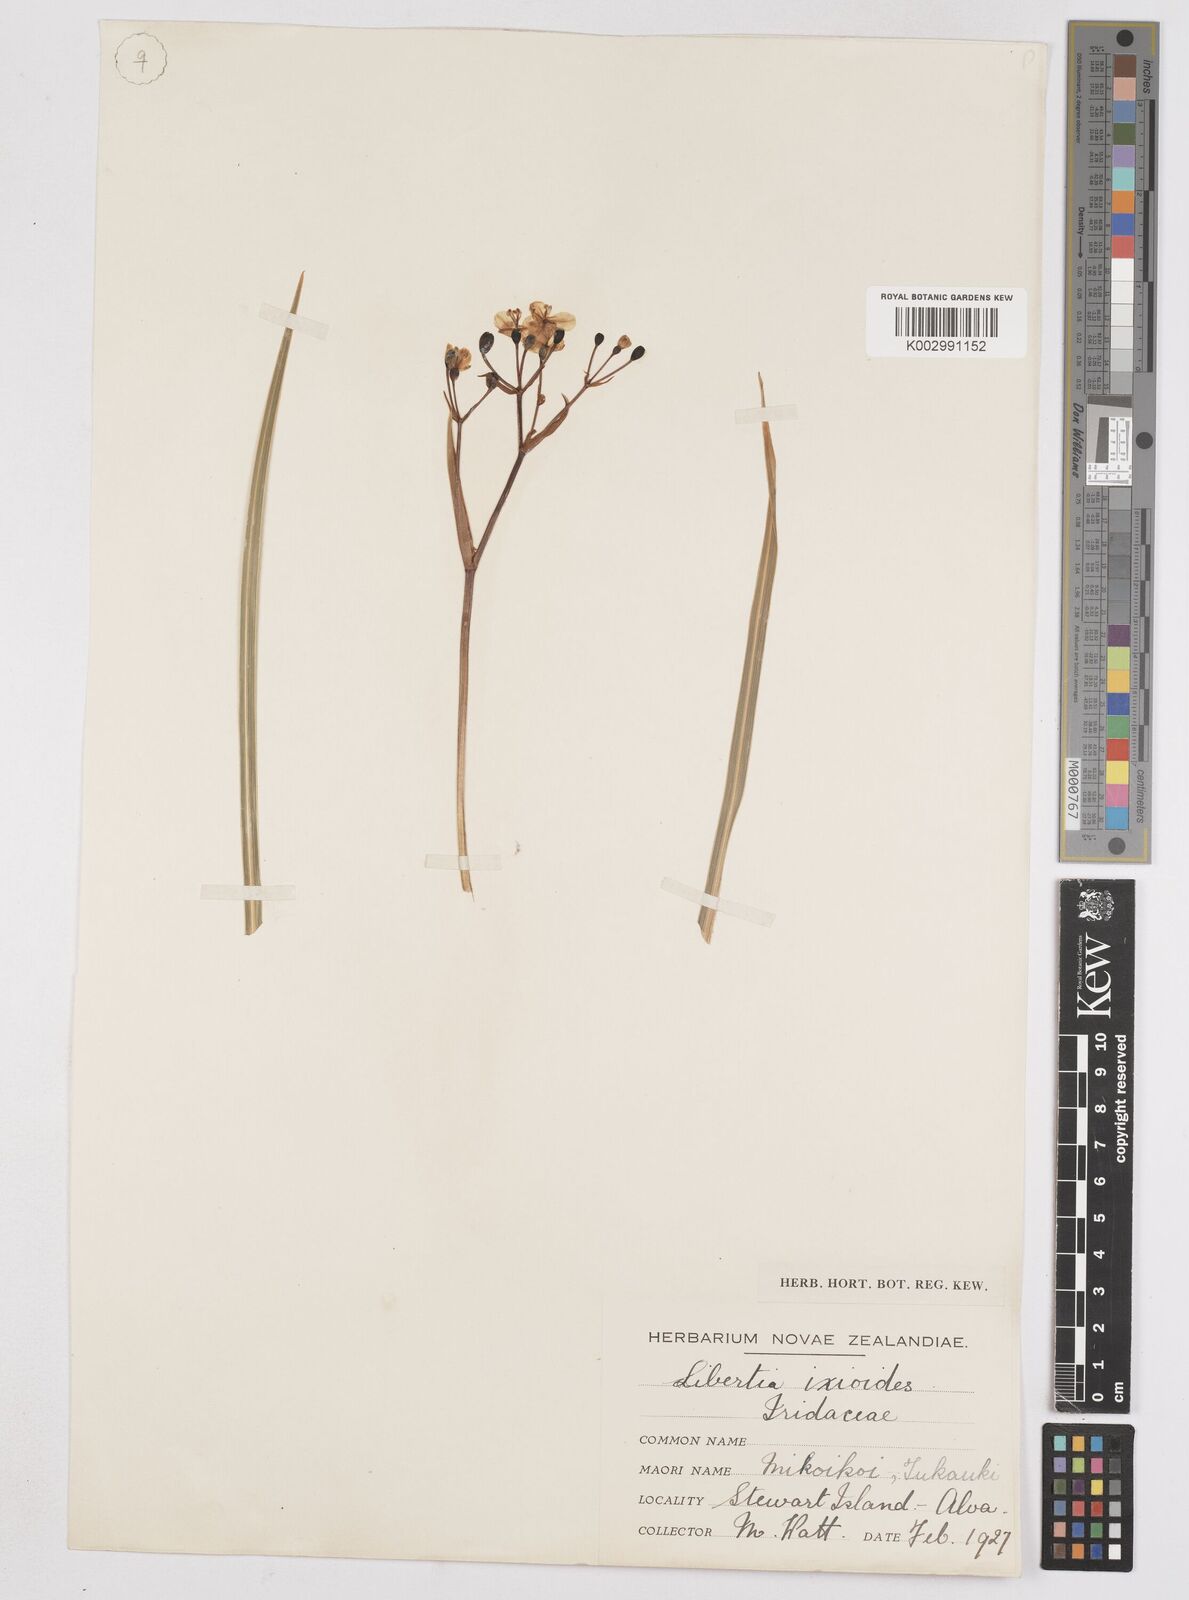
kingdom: Plantae
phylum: Tracheophyta
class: Liliopsida
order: Asparagales
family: Iridaceae
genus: Libertia
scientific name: Libertia peregrinans
